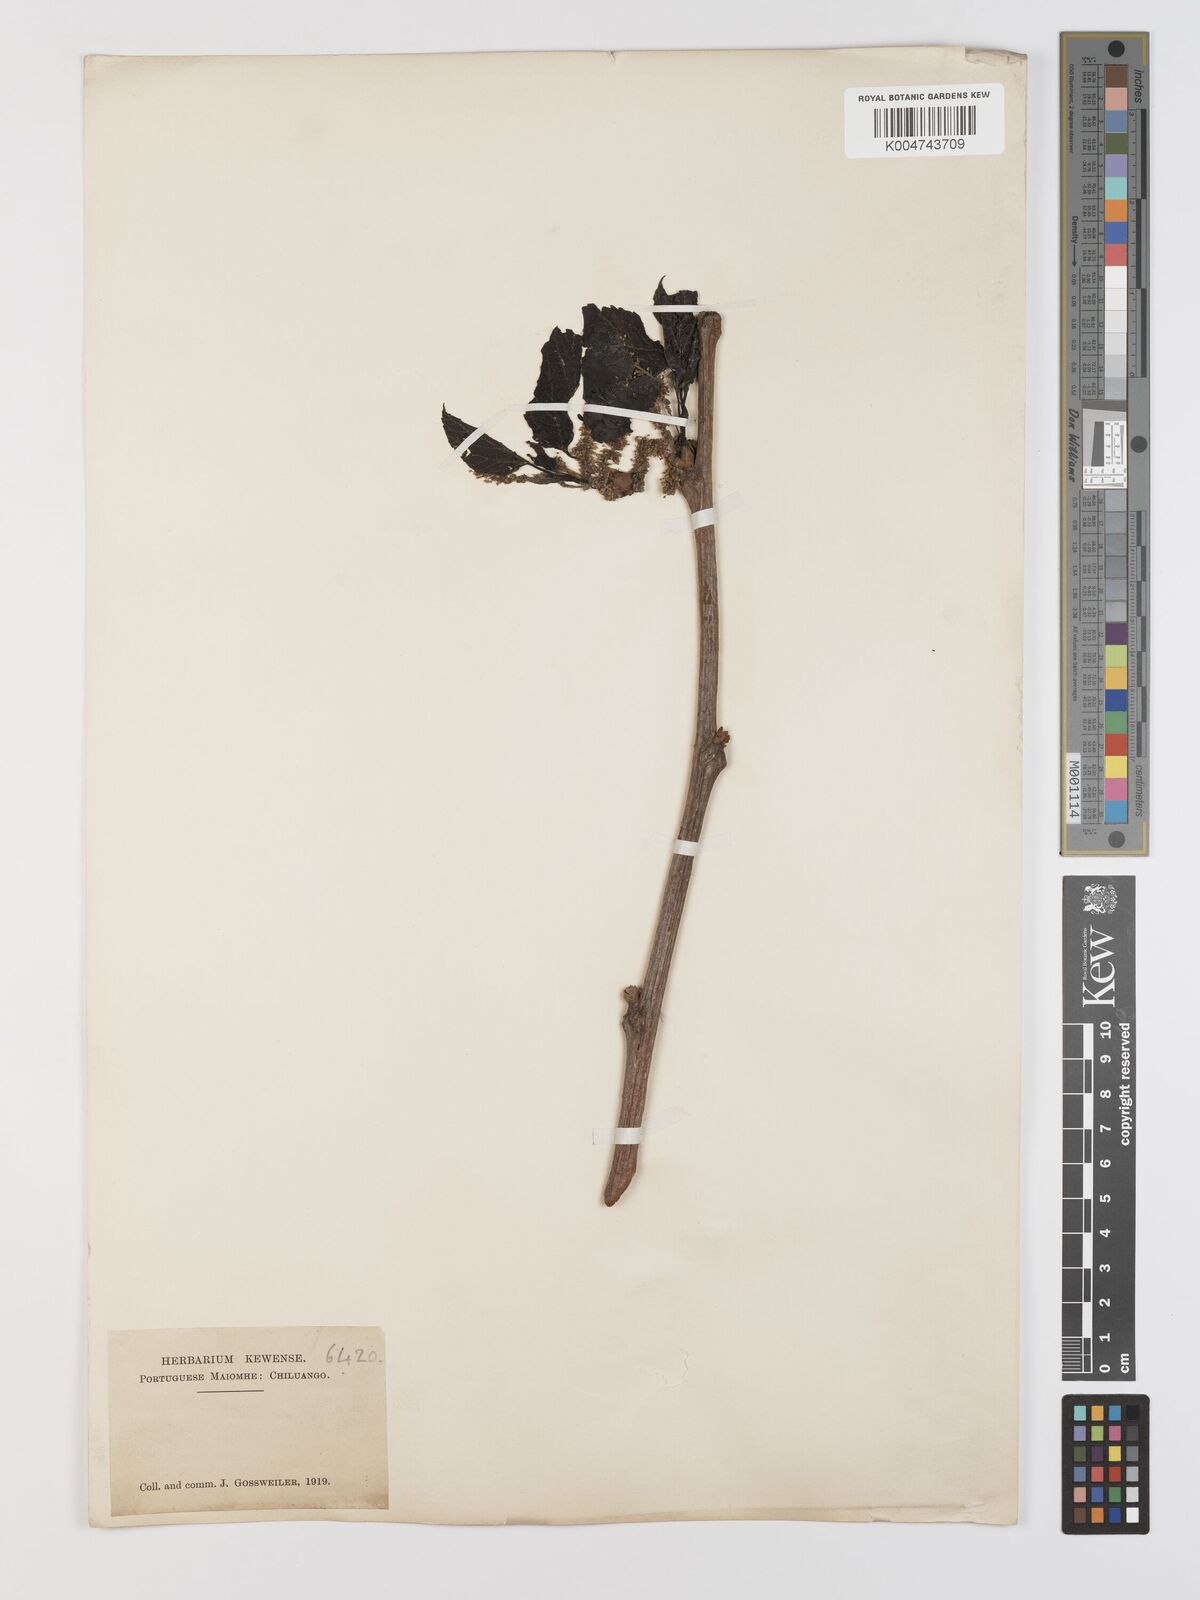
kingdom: Plantae
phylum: Tracheophyta
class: Magnoliopsida
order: Rosales
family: Moraceae
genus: Morus
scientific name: Morus alba
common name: White mulberry
